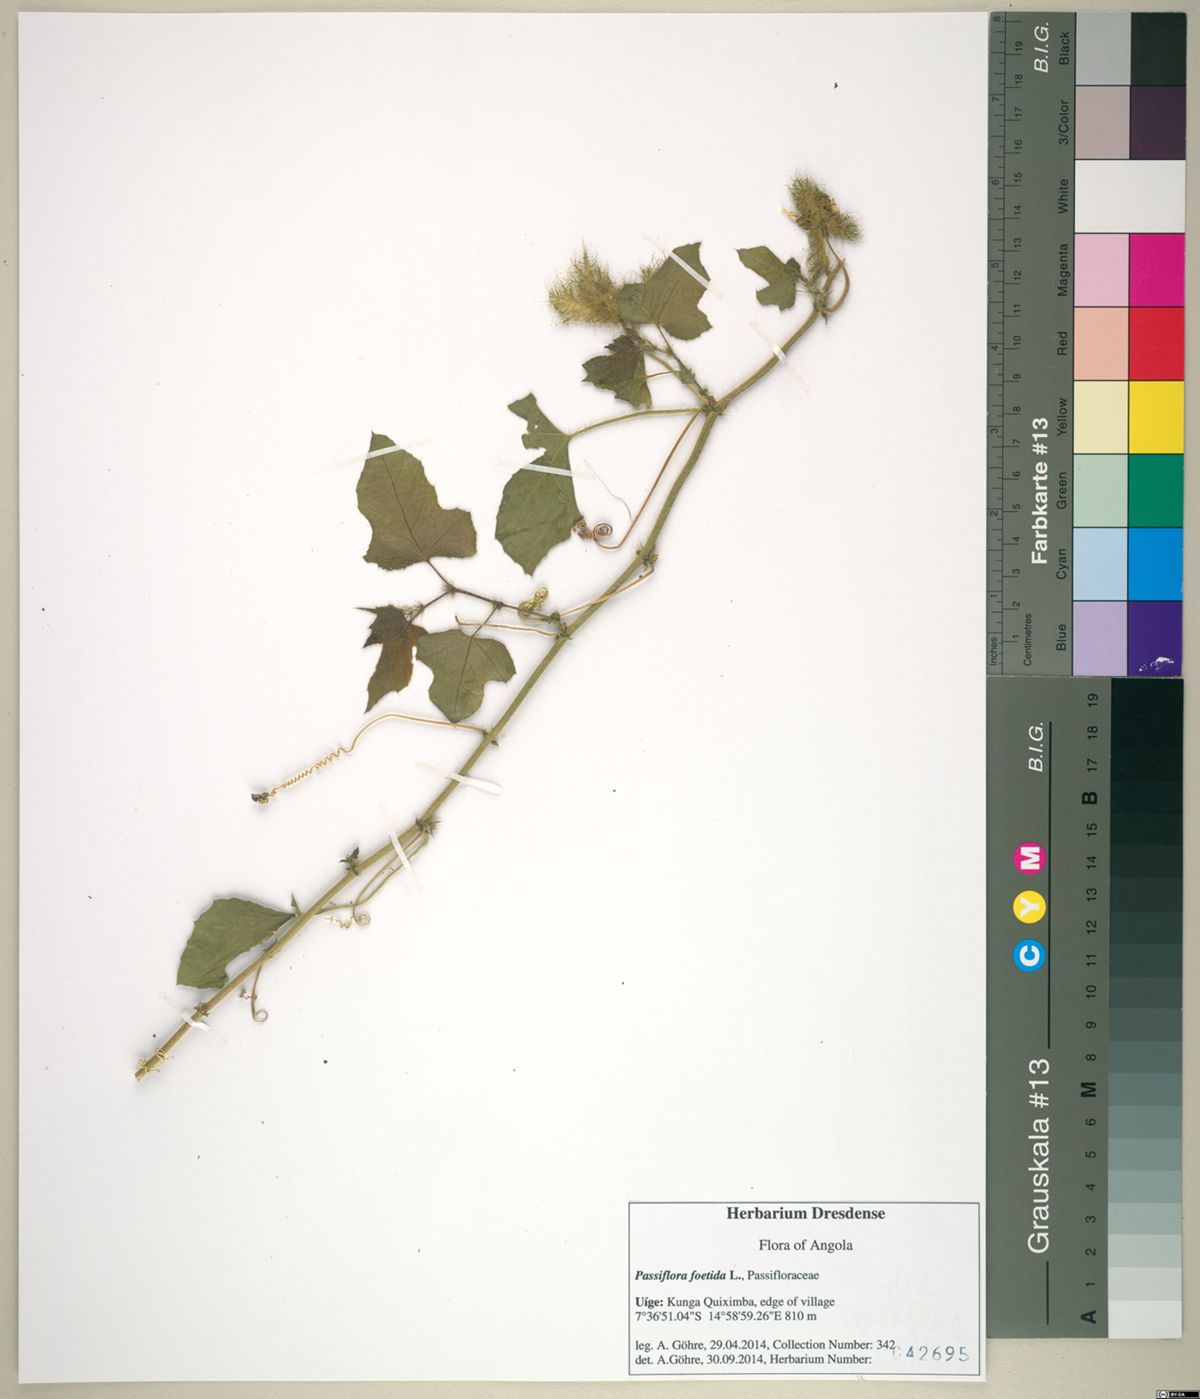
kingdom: Plantae
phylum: Tracheophyta
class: Magnoliopsida
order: Malpighiales
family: Passifloraceae
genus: Passiflora
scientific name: Passiflora foetida
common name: Fetid passionflower
